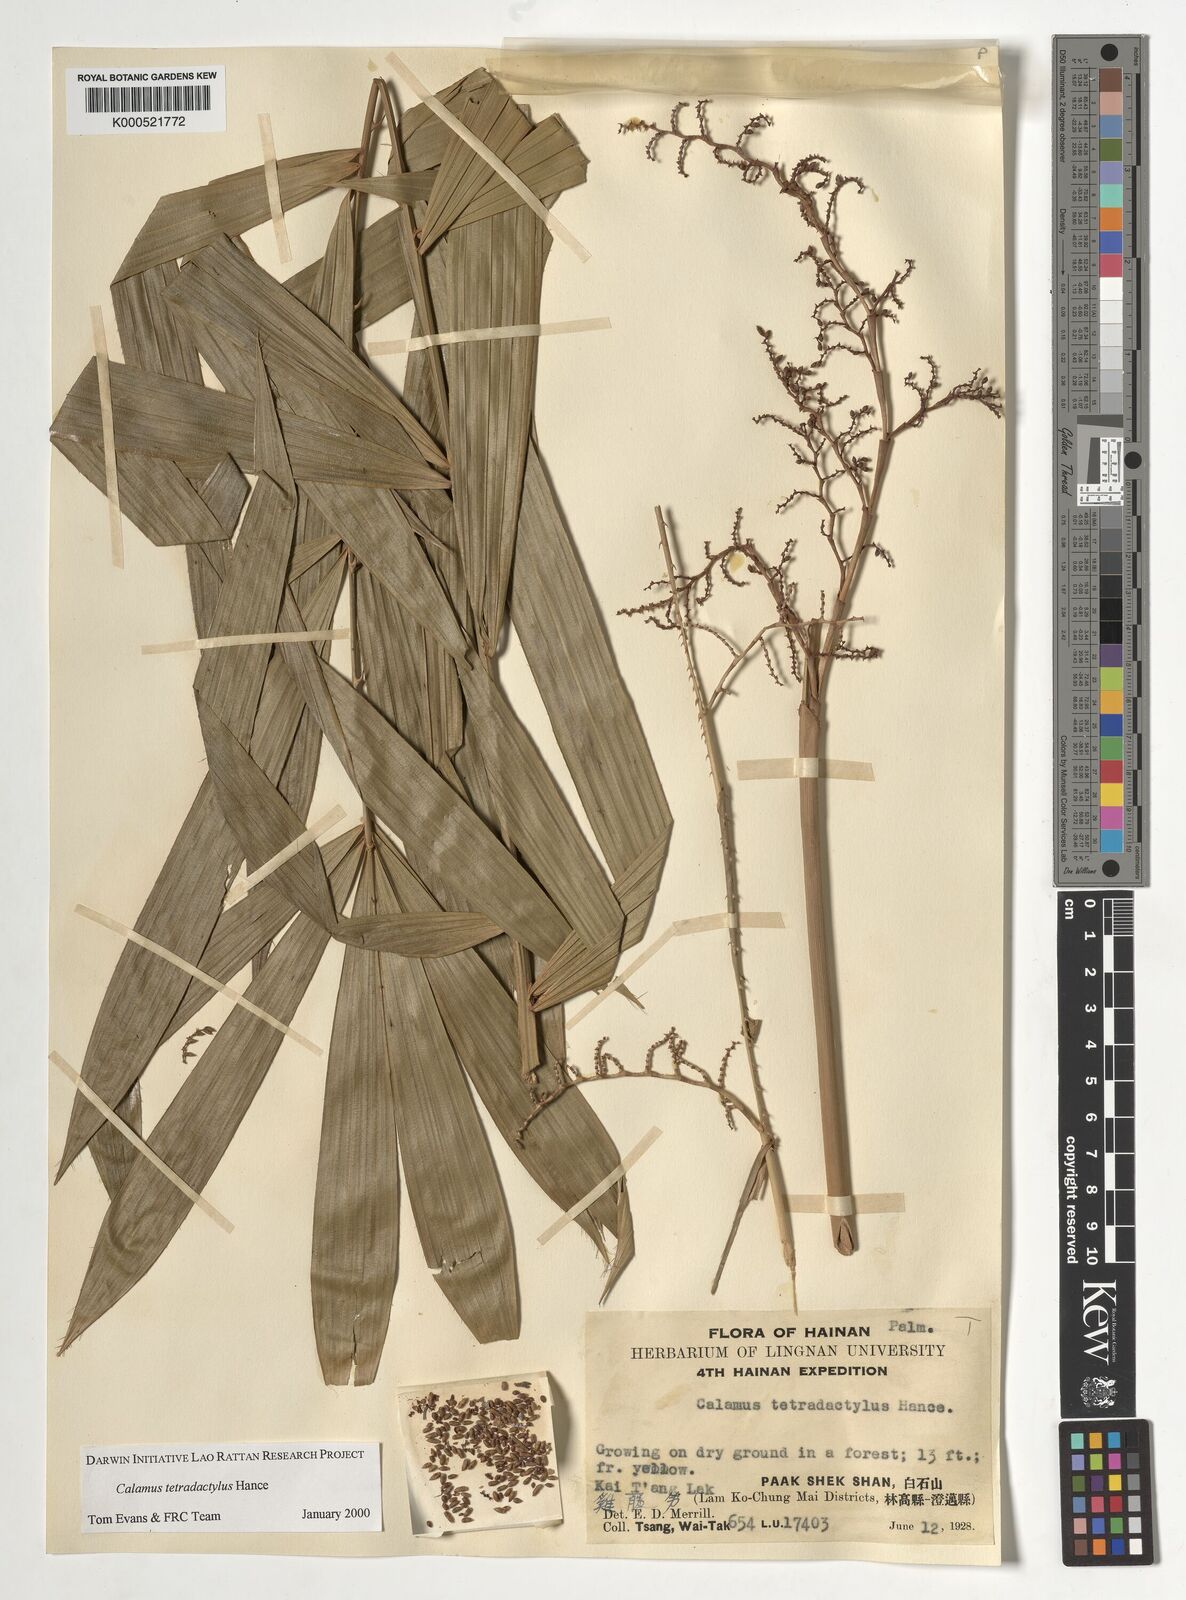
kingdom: Plantae
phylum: Tracheophyta
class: Liliopsida
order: Arecales
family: Arecaceae
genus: Calamus
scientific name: Calamus tetradactylus
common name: White rattan
